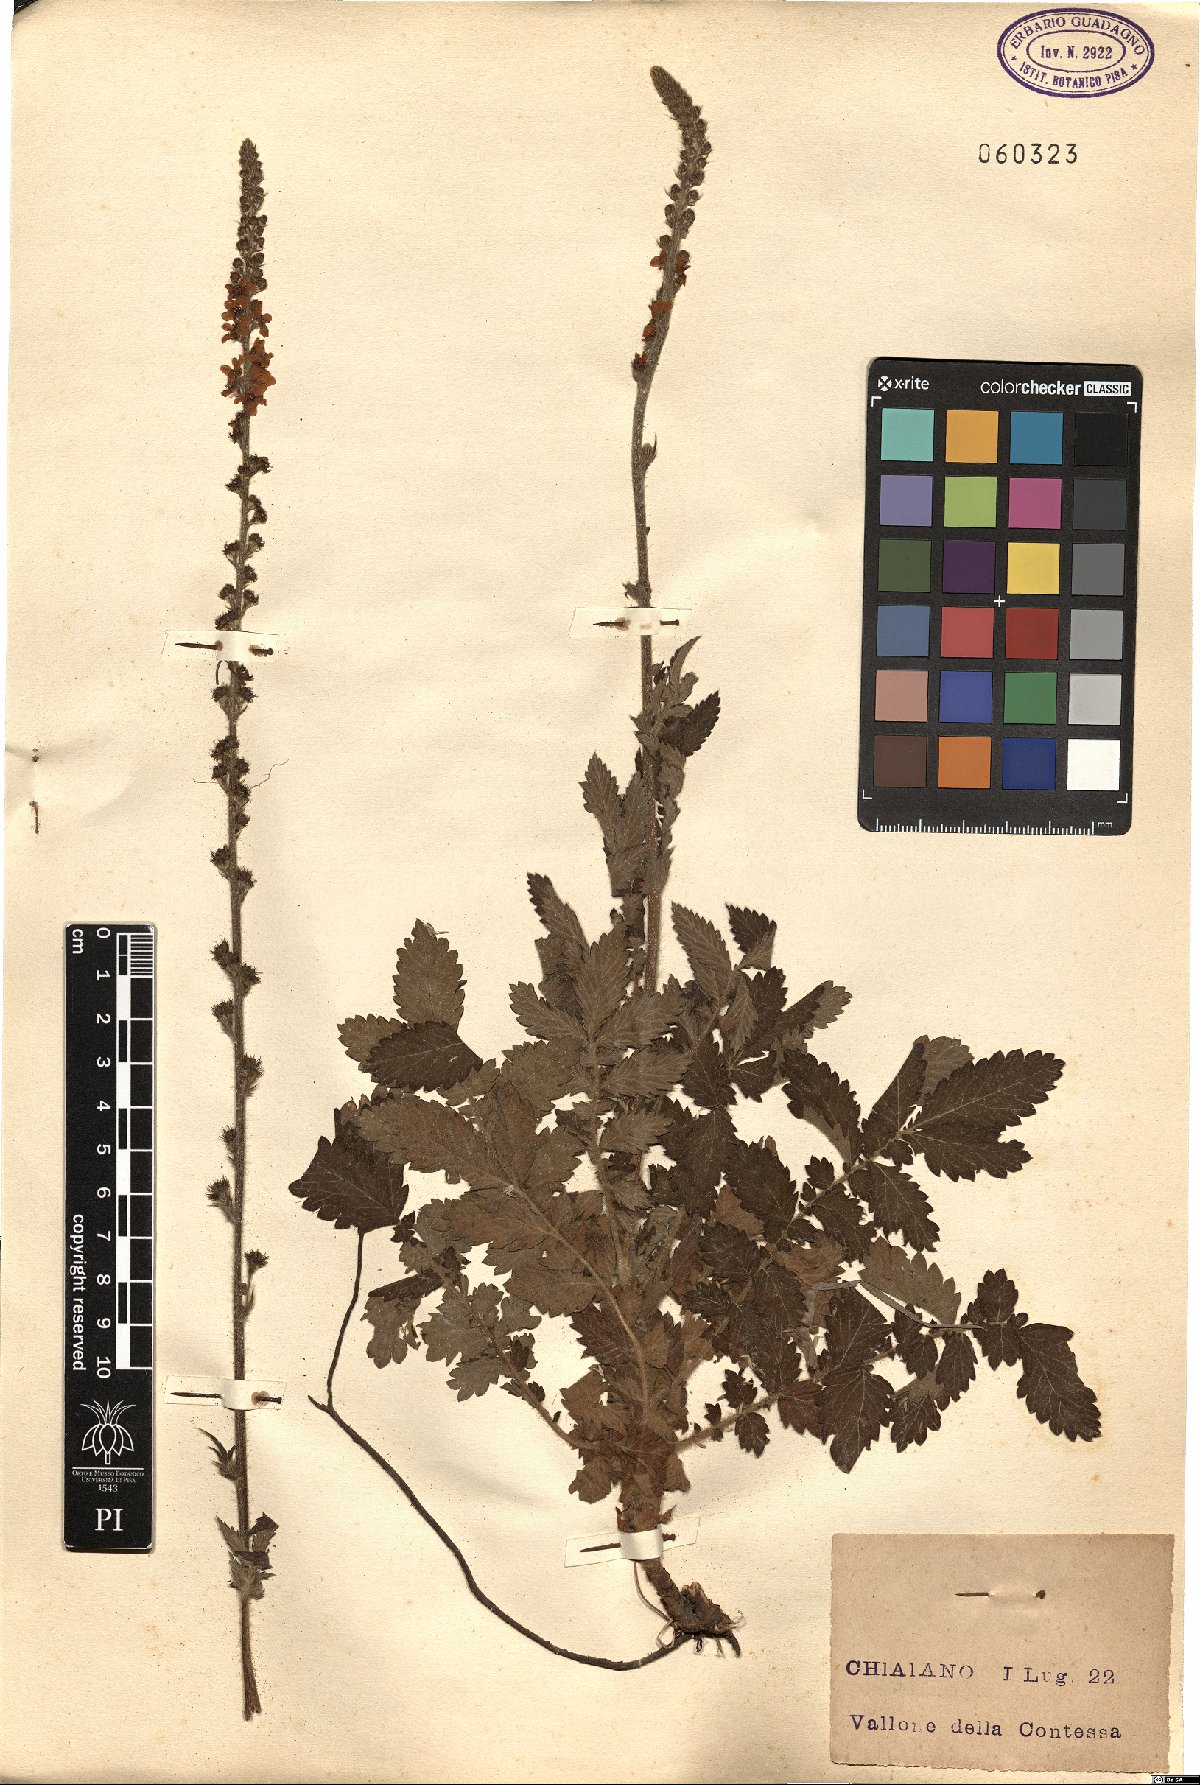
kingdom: Plantae
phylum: Tracheophyta
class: Magnoliopsida
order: Rosales
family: Rosaceae
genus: Agrimonia
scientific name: Agrimonia eupatoria
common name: Agrimony
